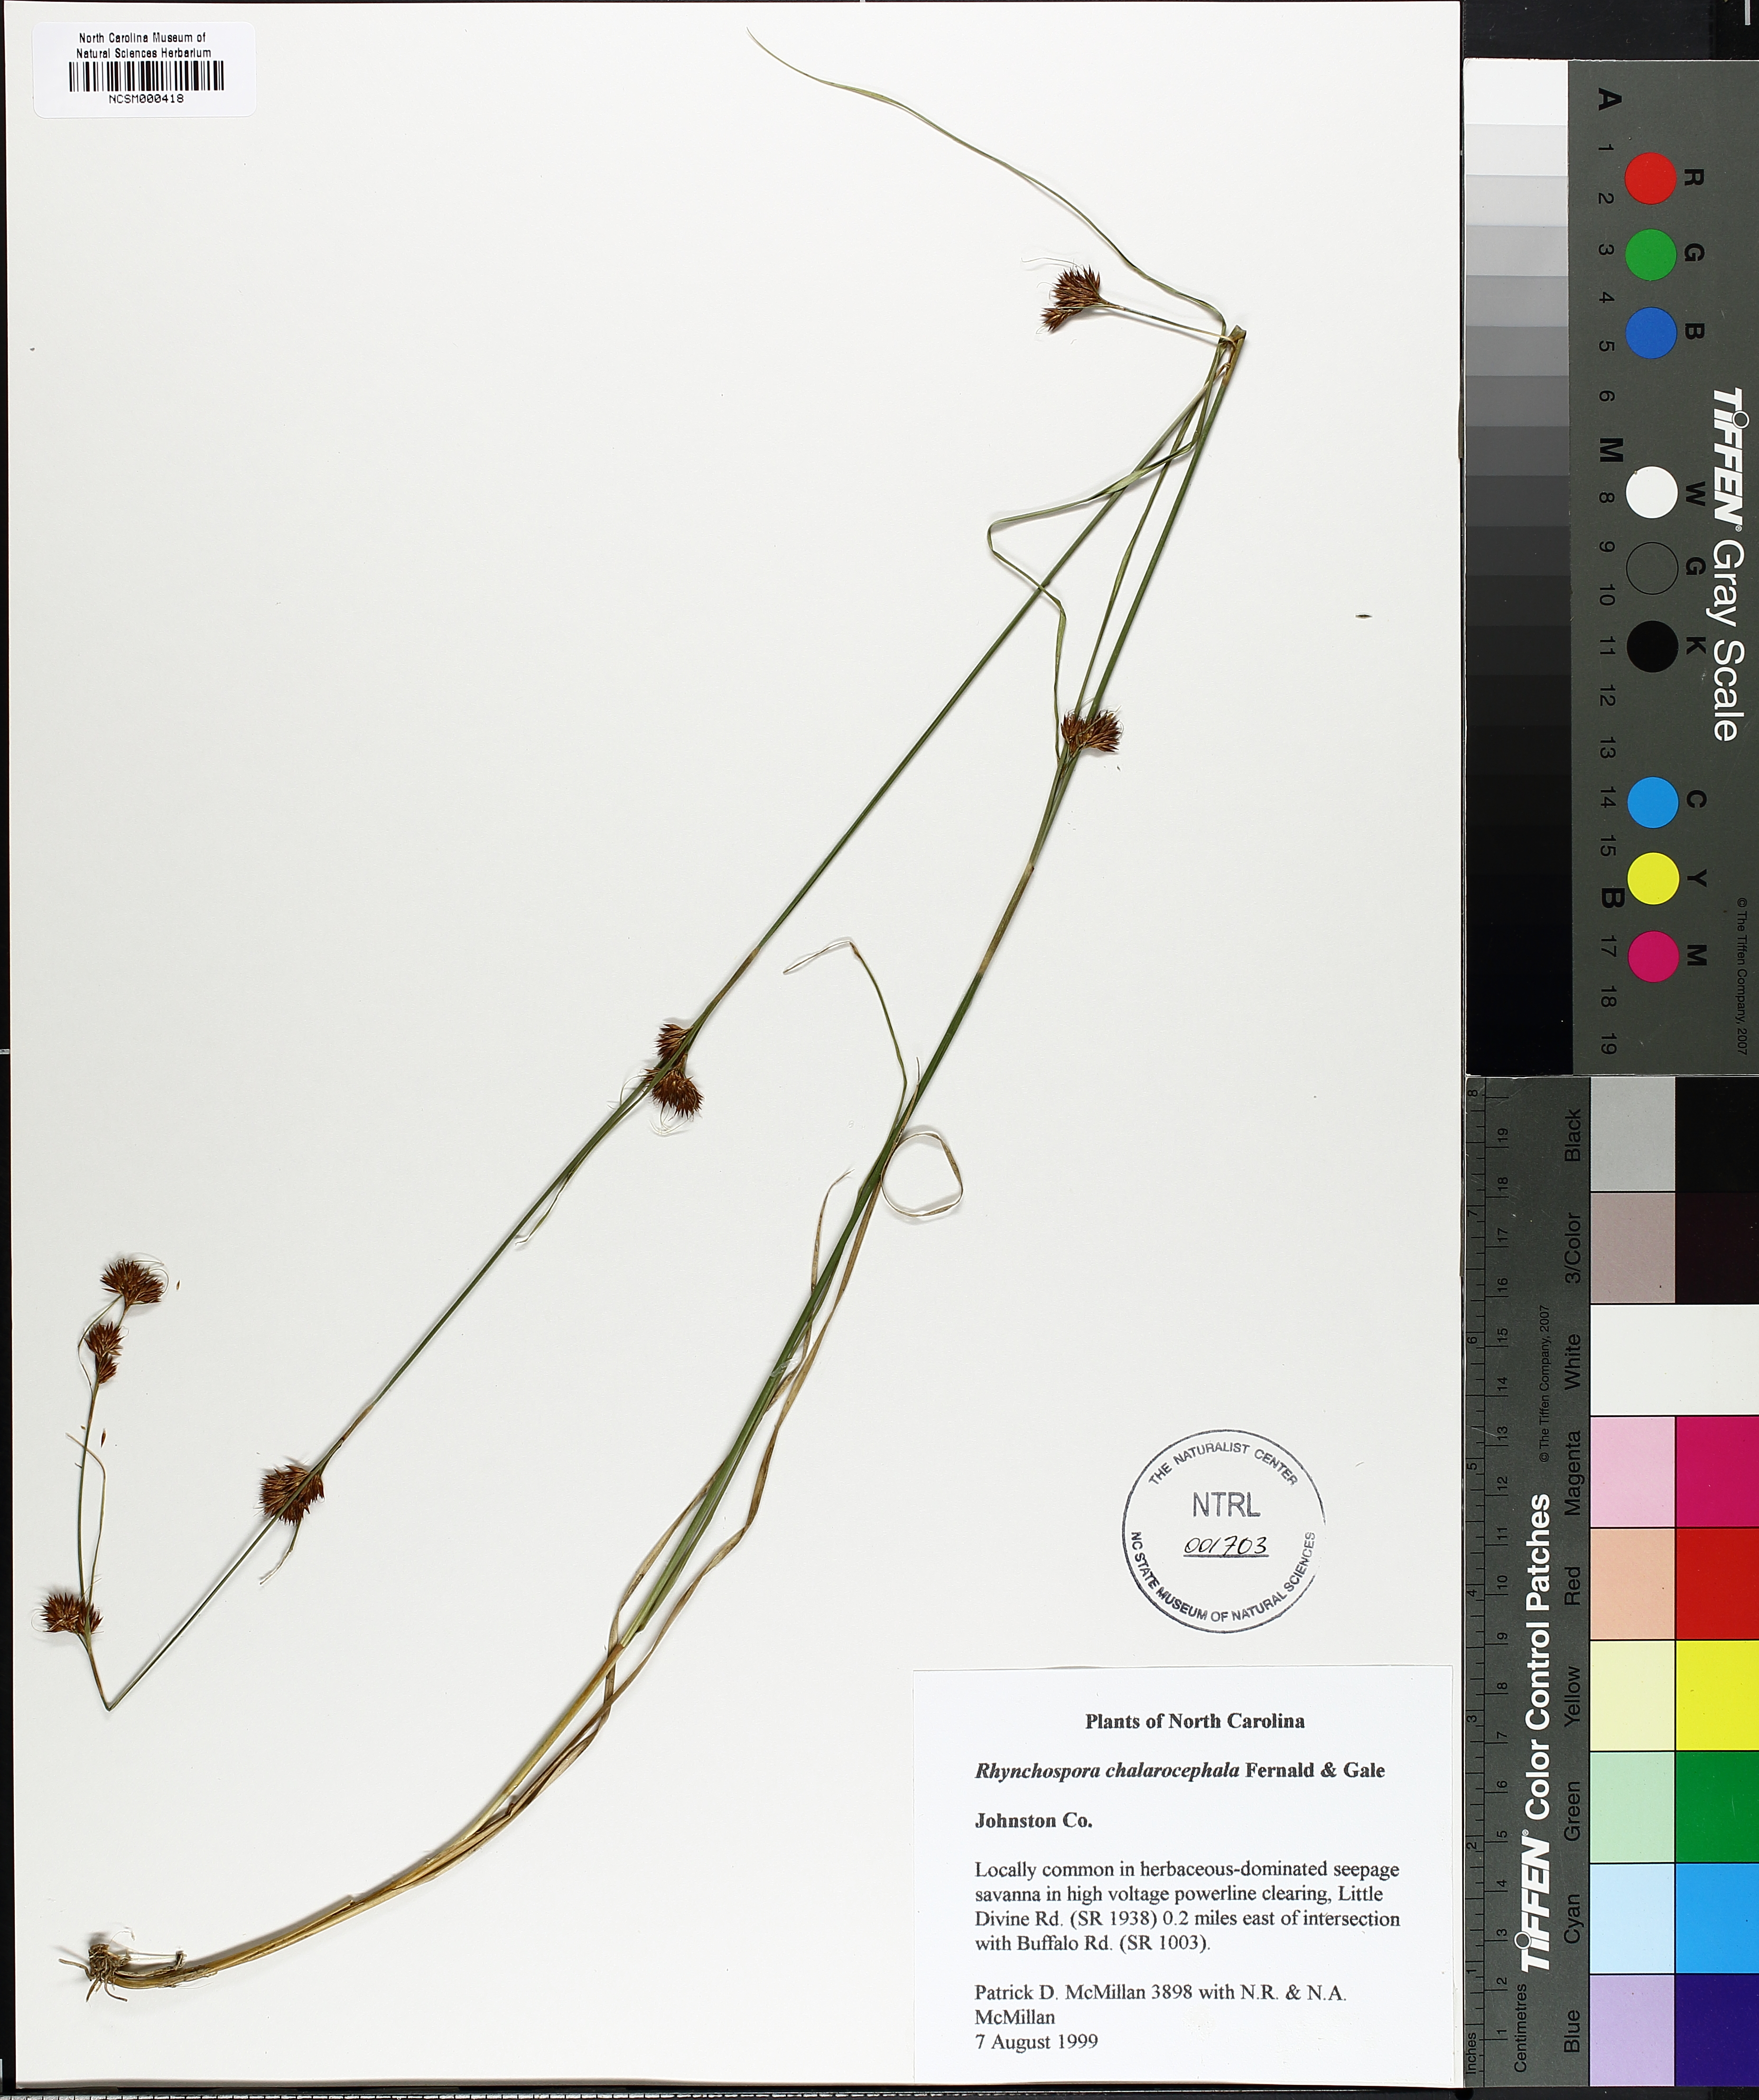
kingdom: Plantae
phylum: Tracheophyta
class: Liliopsida
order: Poales
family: Cyperaceae
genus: Rhynchospora
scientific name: Rhynchospora chalarocephala
